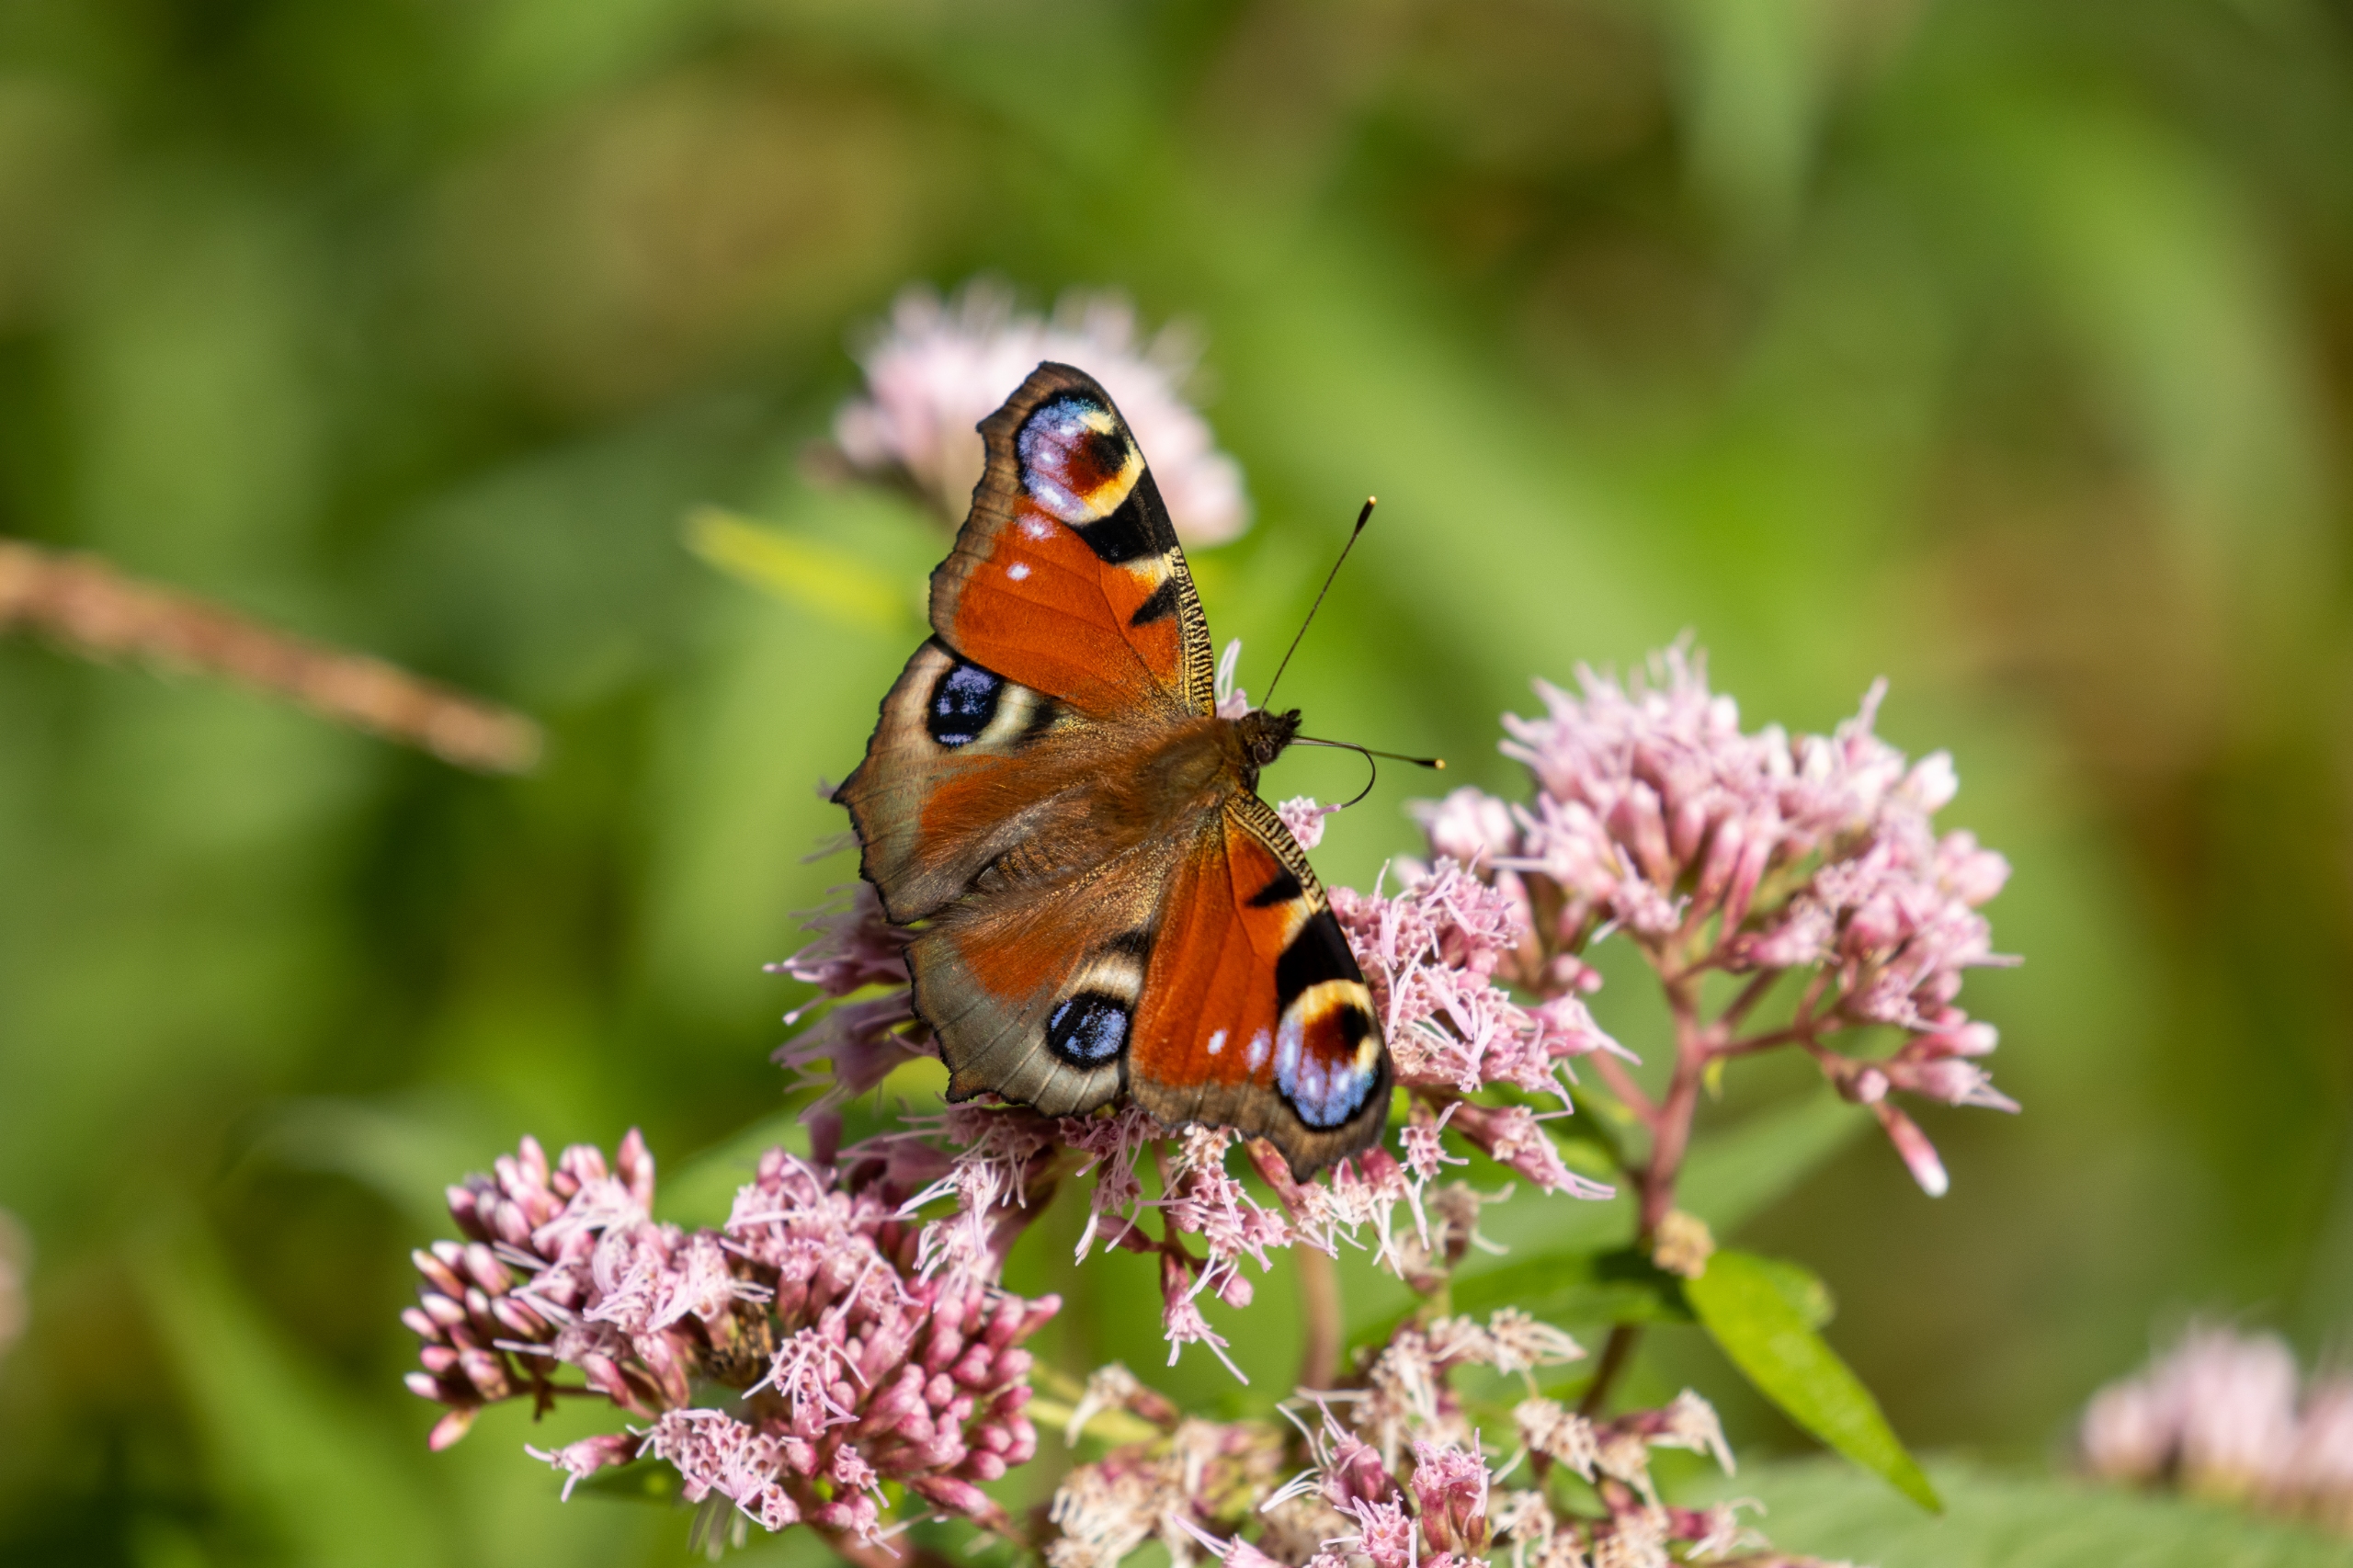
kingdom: Animalia
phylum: Arthropoda
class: Insecta
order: Lepidoptera
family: Nymphalidae
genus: Aglais
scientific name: Aglais io
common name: Dagpåfugleøje
